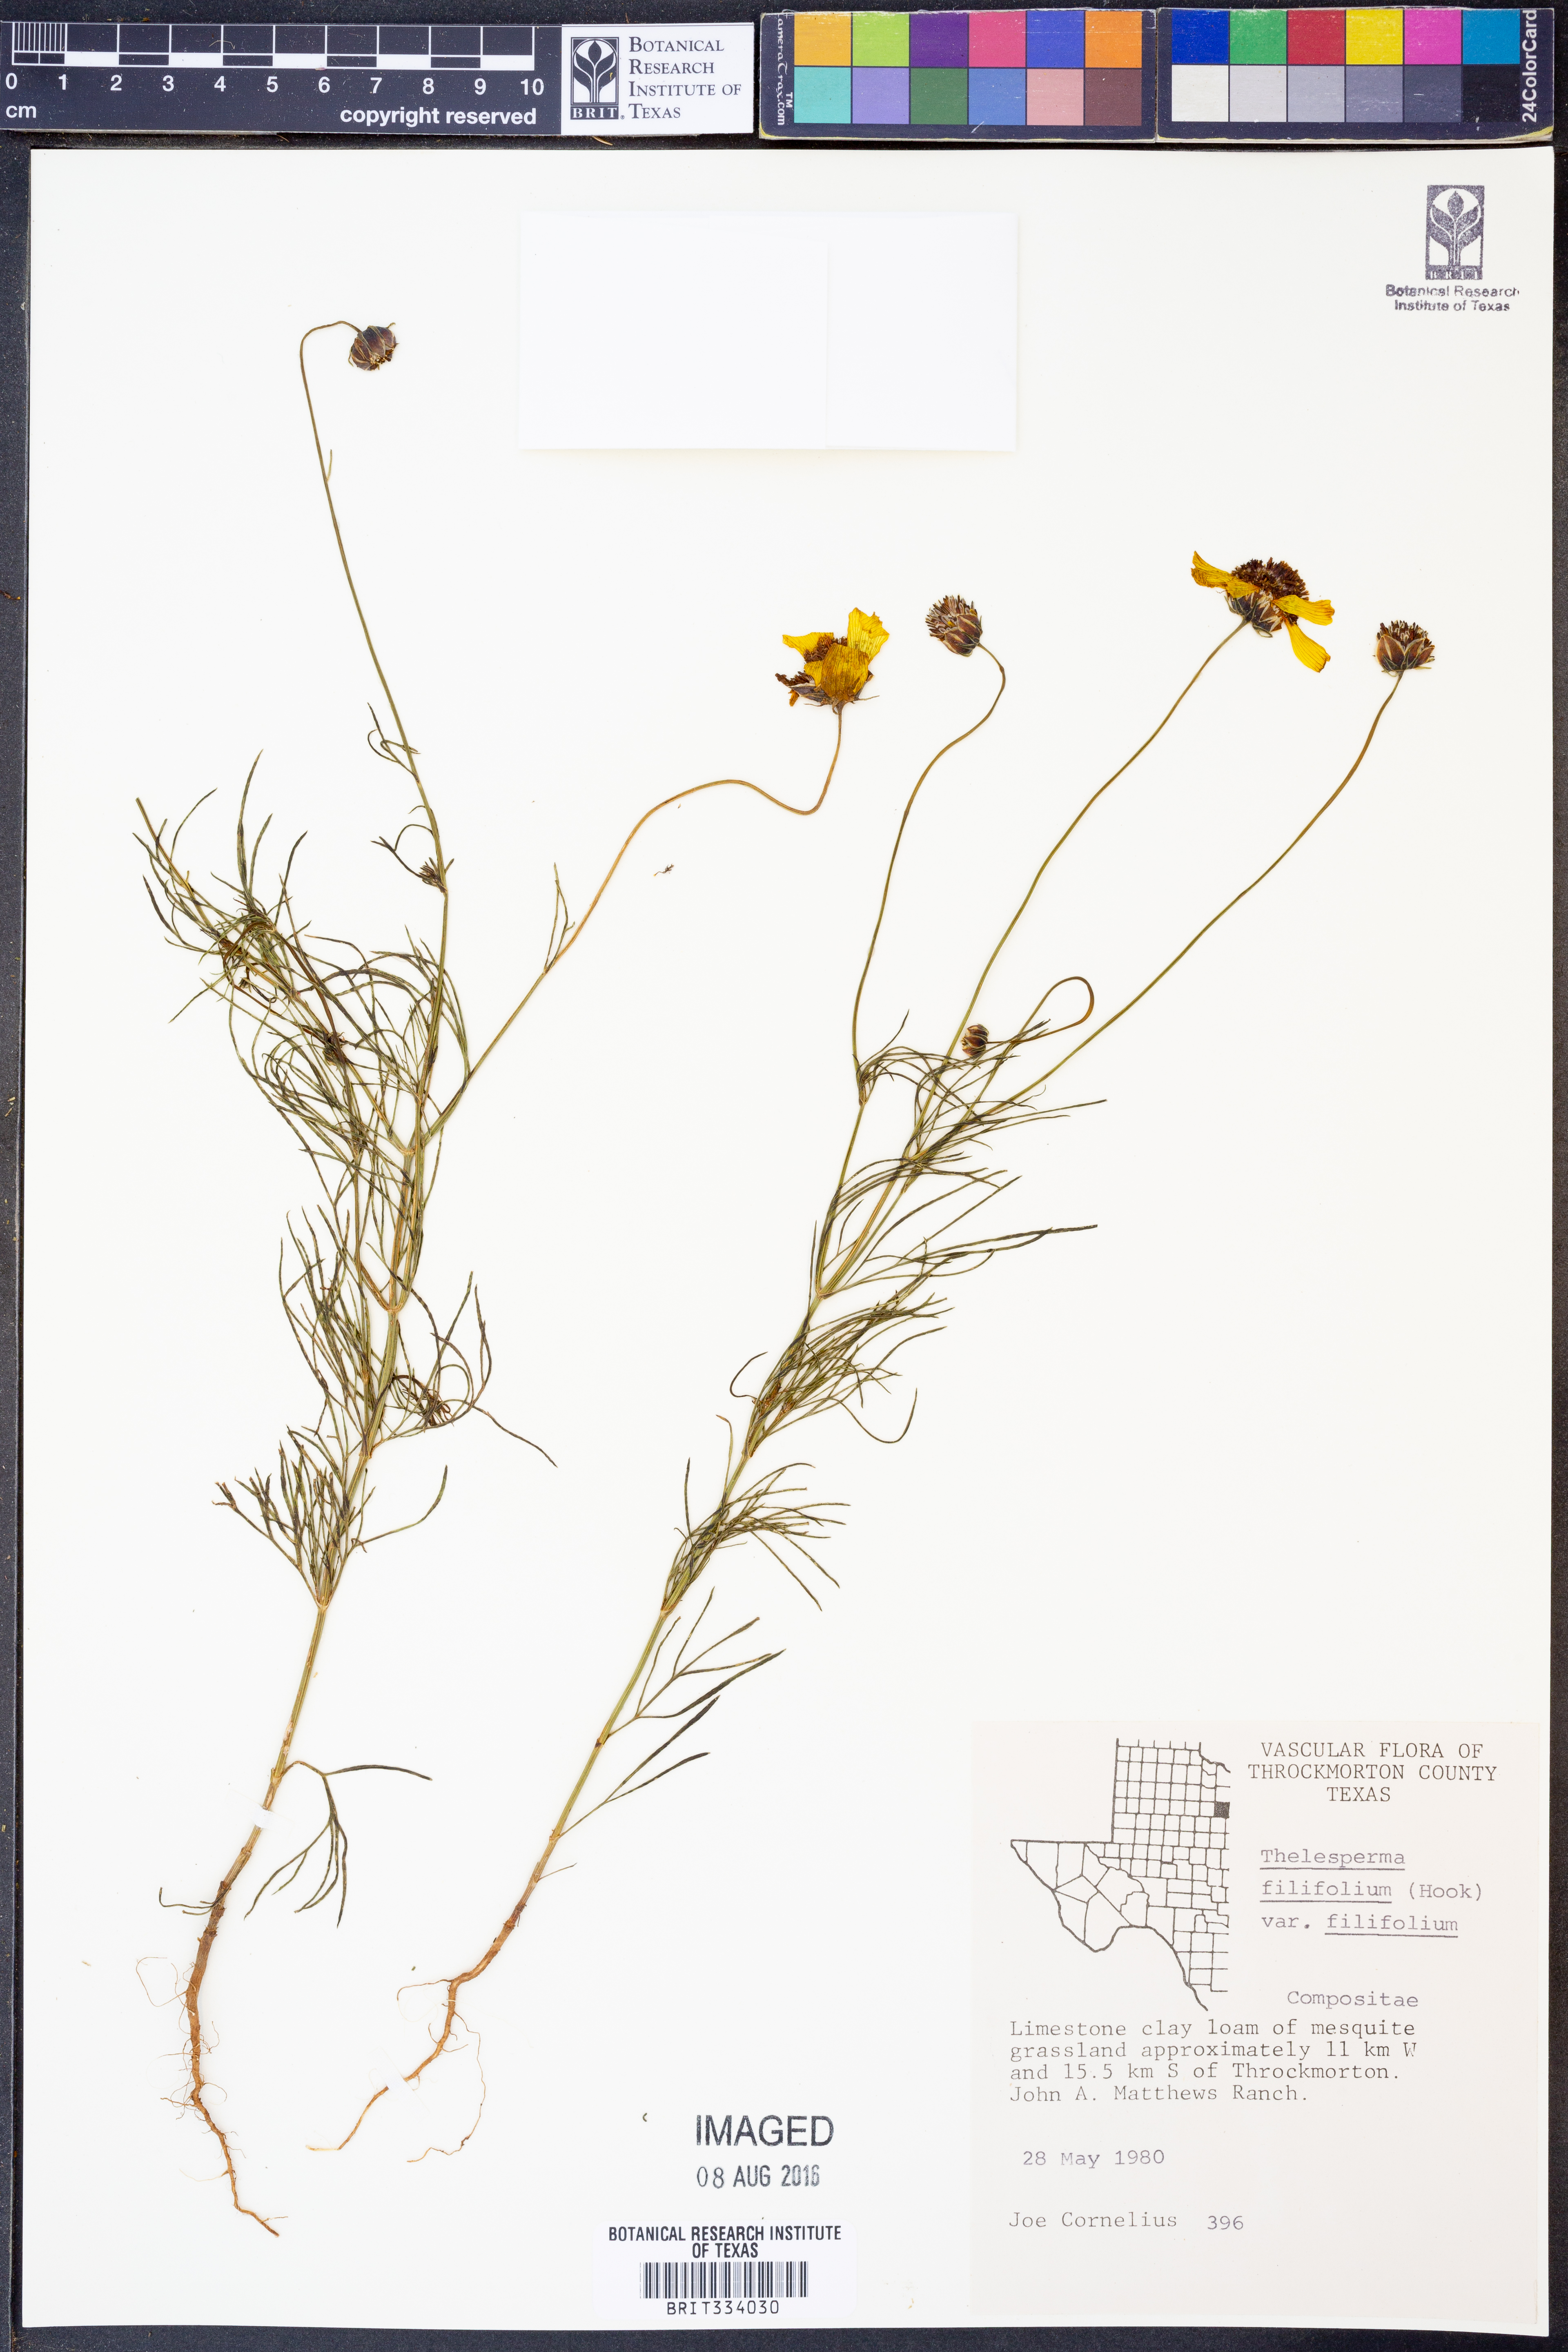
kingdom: Plantae
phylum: Tracheophyta
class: Magnoliopsida
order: Asterales
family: Asteraceae
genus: Thelesperma
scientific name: Thelesperma filifolium
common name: Stiff greenthread
